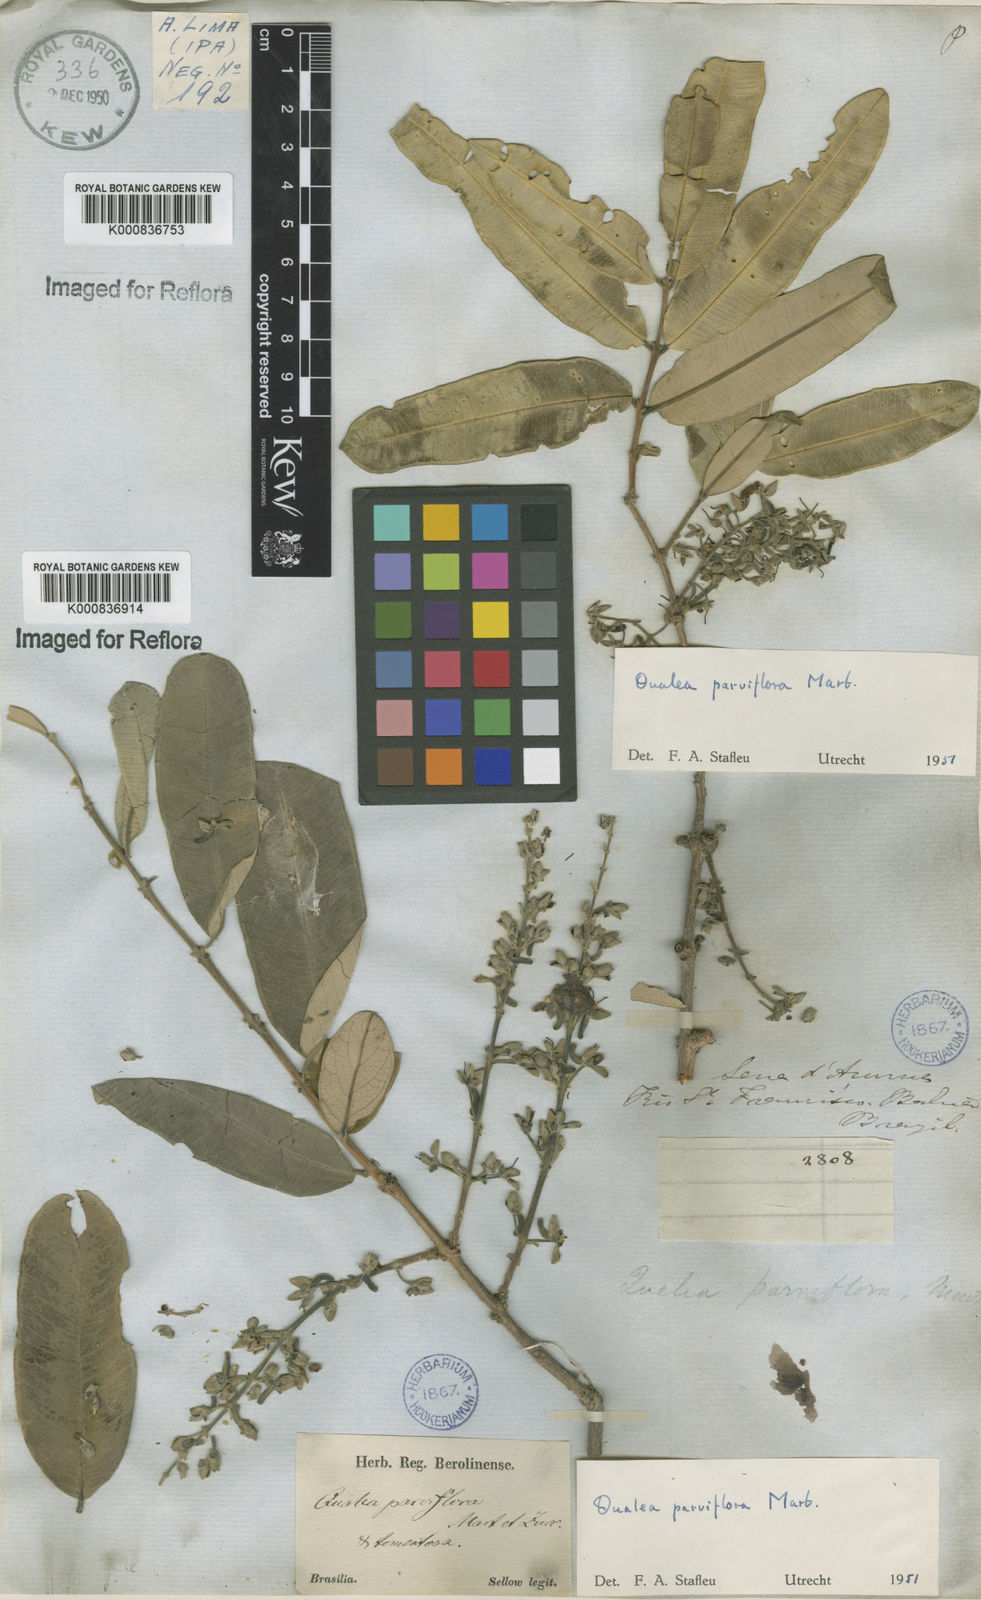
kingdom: Plantae
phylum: Tracheophyta
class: Magnoliopsida
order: Myrtales
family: Vochysiaceae
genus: Qualea
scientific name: Qualea parviflora
